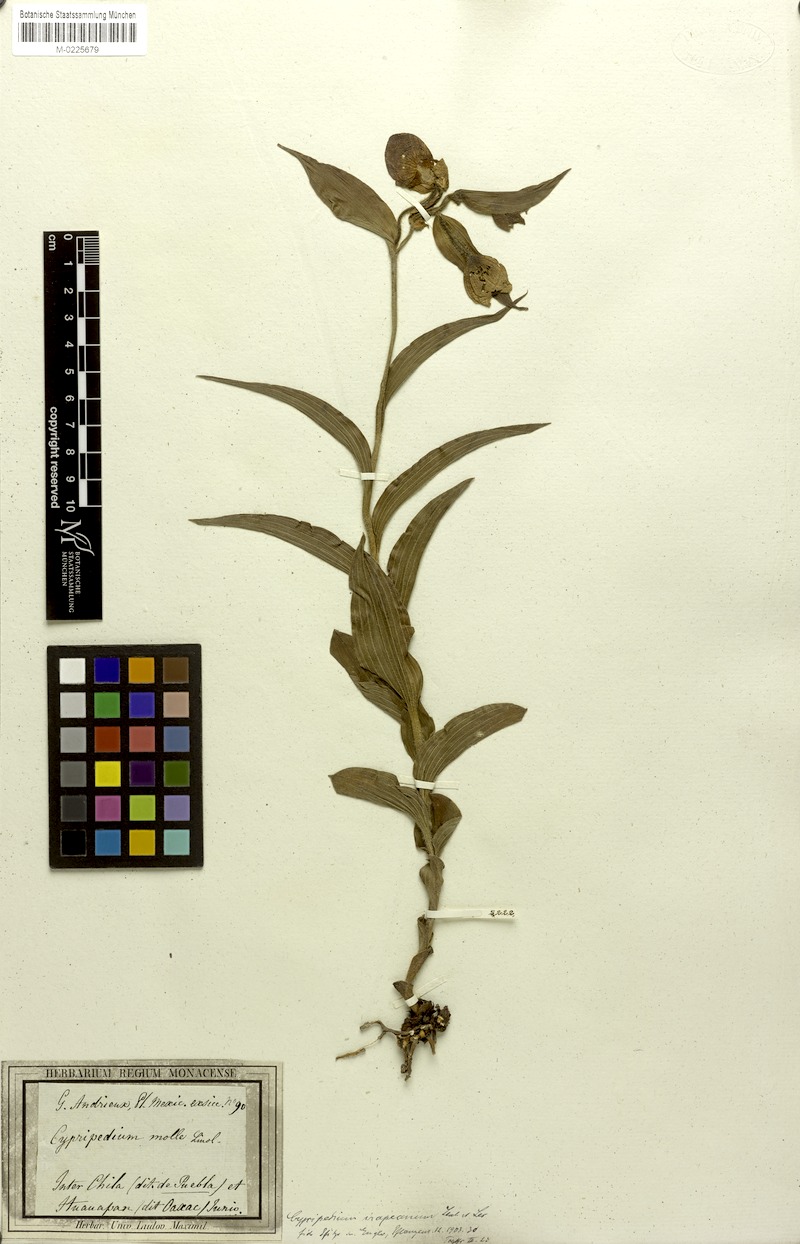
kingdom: Plantae
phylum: Tracheophyta
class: Liliopsida
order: Asparagales
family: Orchidaceae
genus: Cypripedium
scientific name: Cypripedium irapeanum
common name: Irapeao cypripedium
